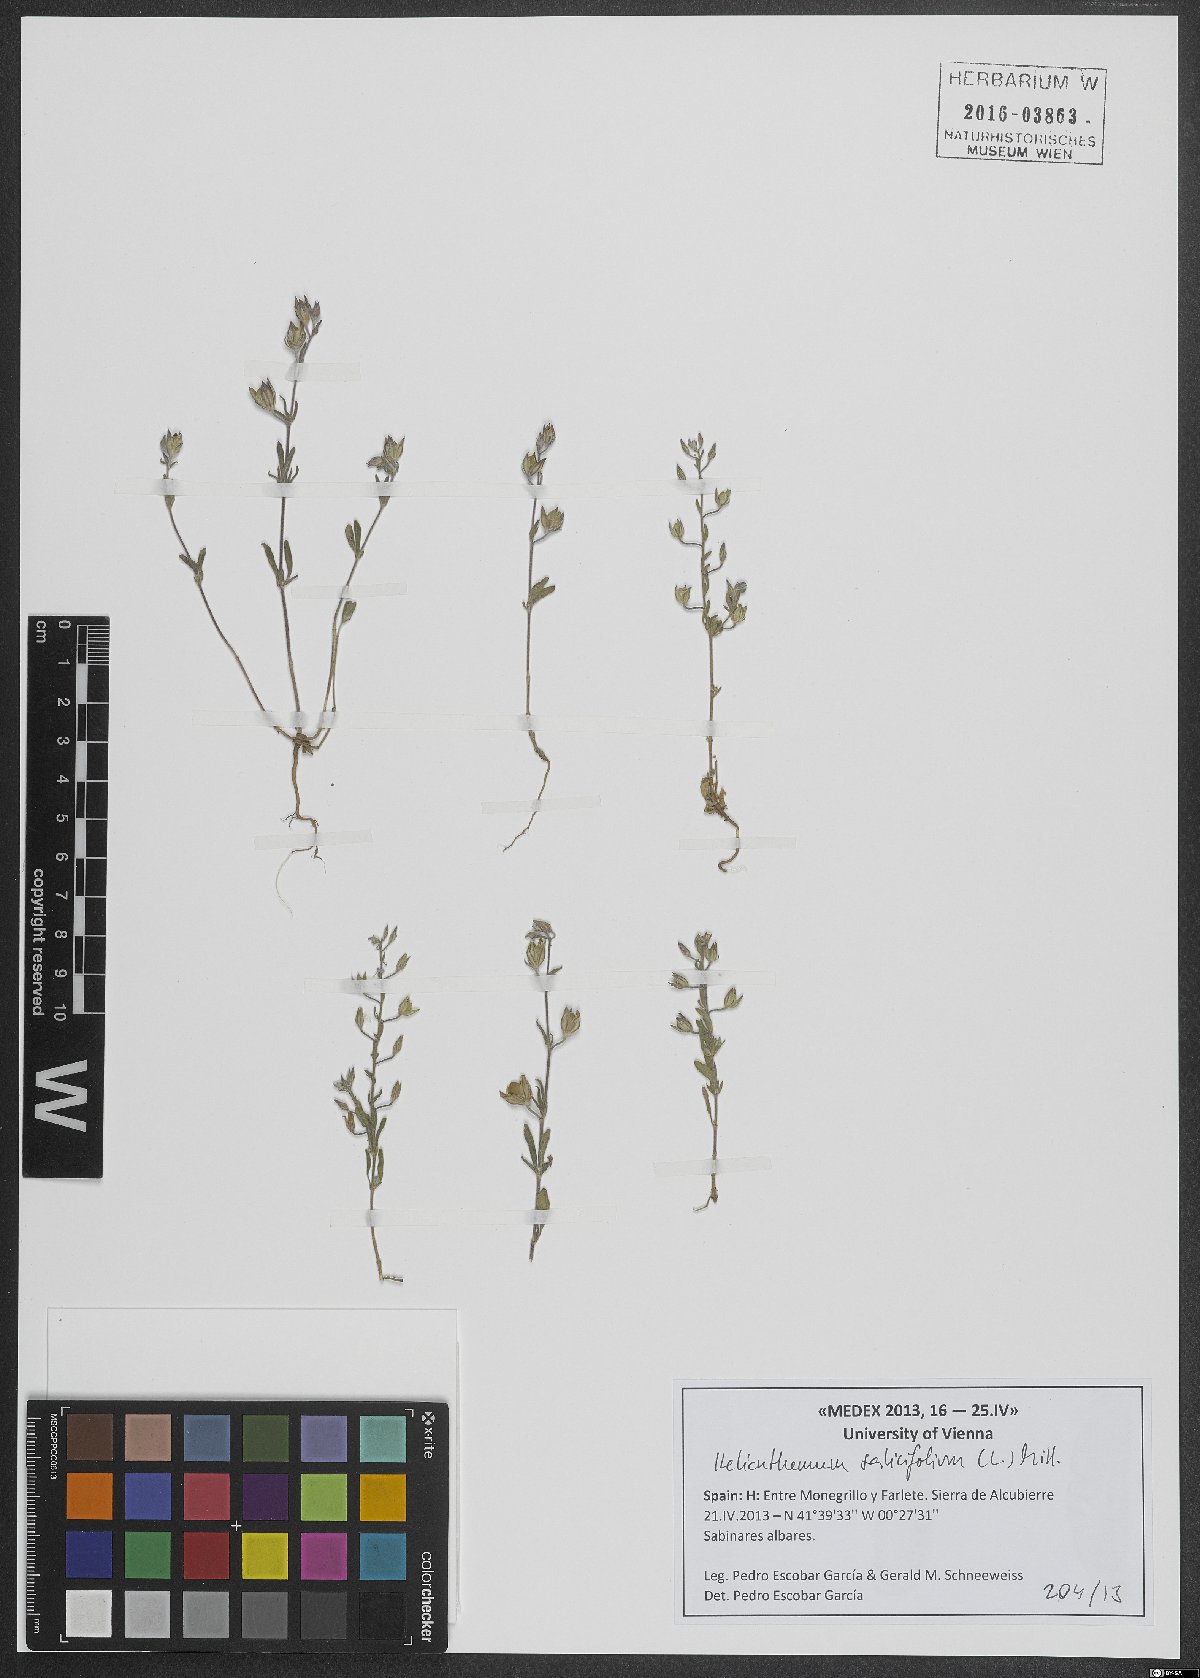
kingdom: Plantae
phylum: Tracheophyta
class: Magnoliopsida
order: Malvales
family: Cistaceae
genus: Helianthemum
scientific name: Helianthemum salicifolium
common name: Willowleaf frostweed
